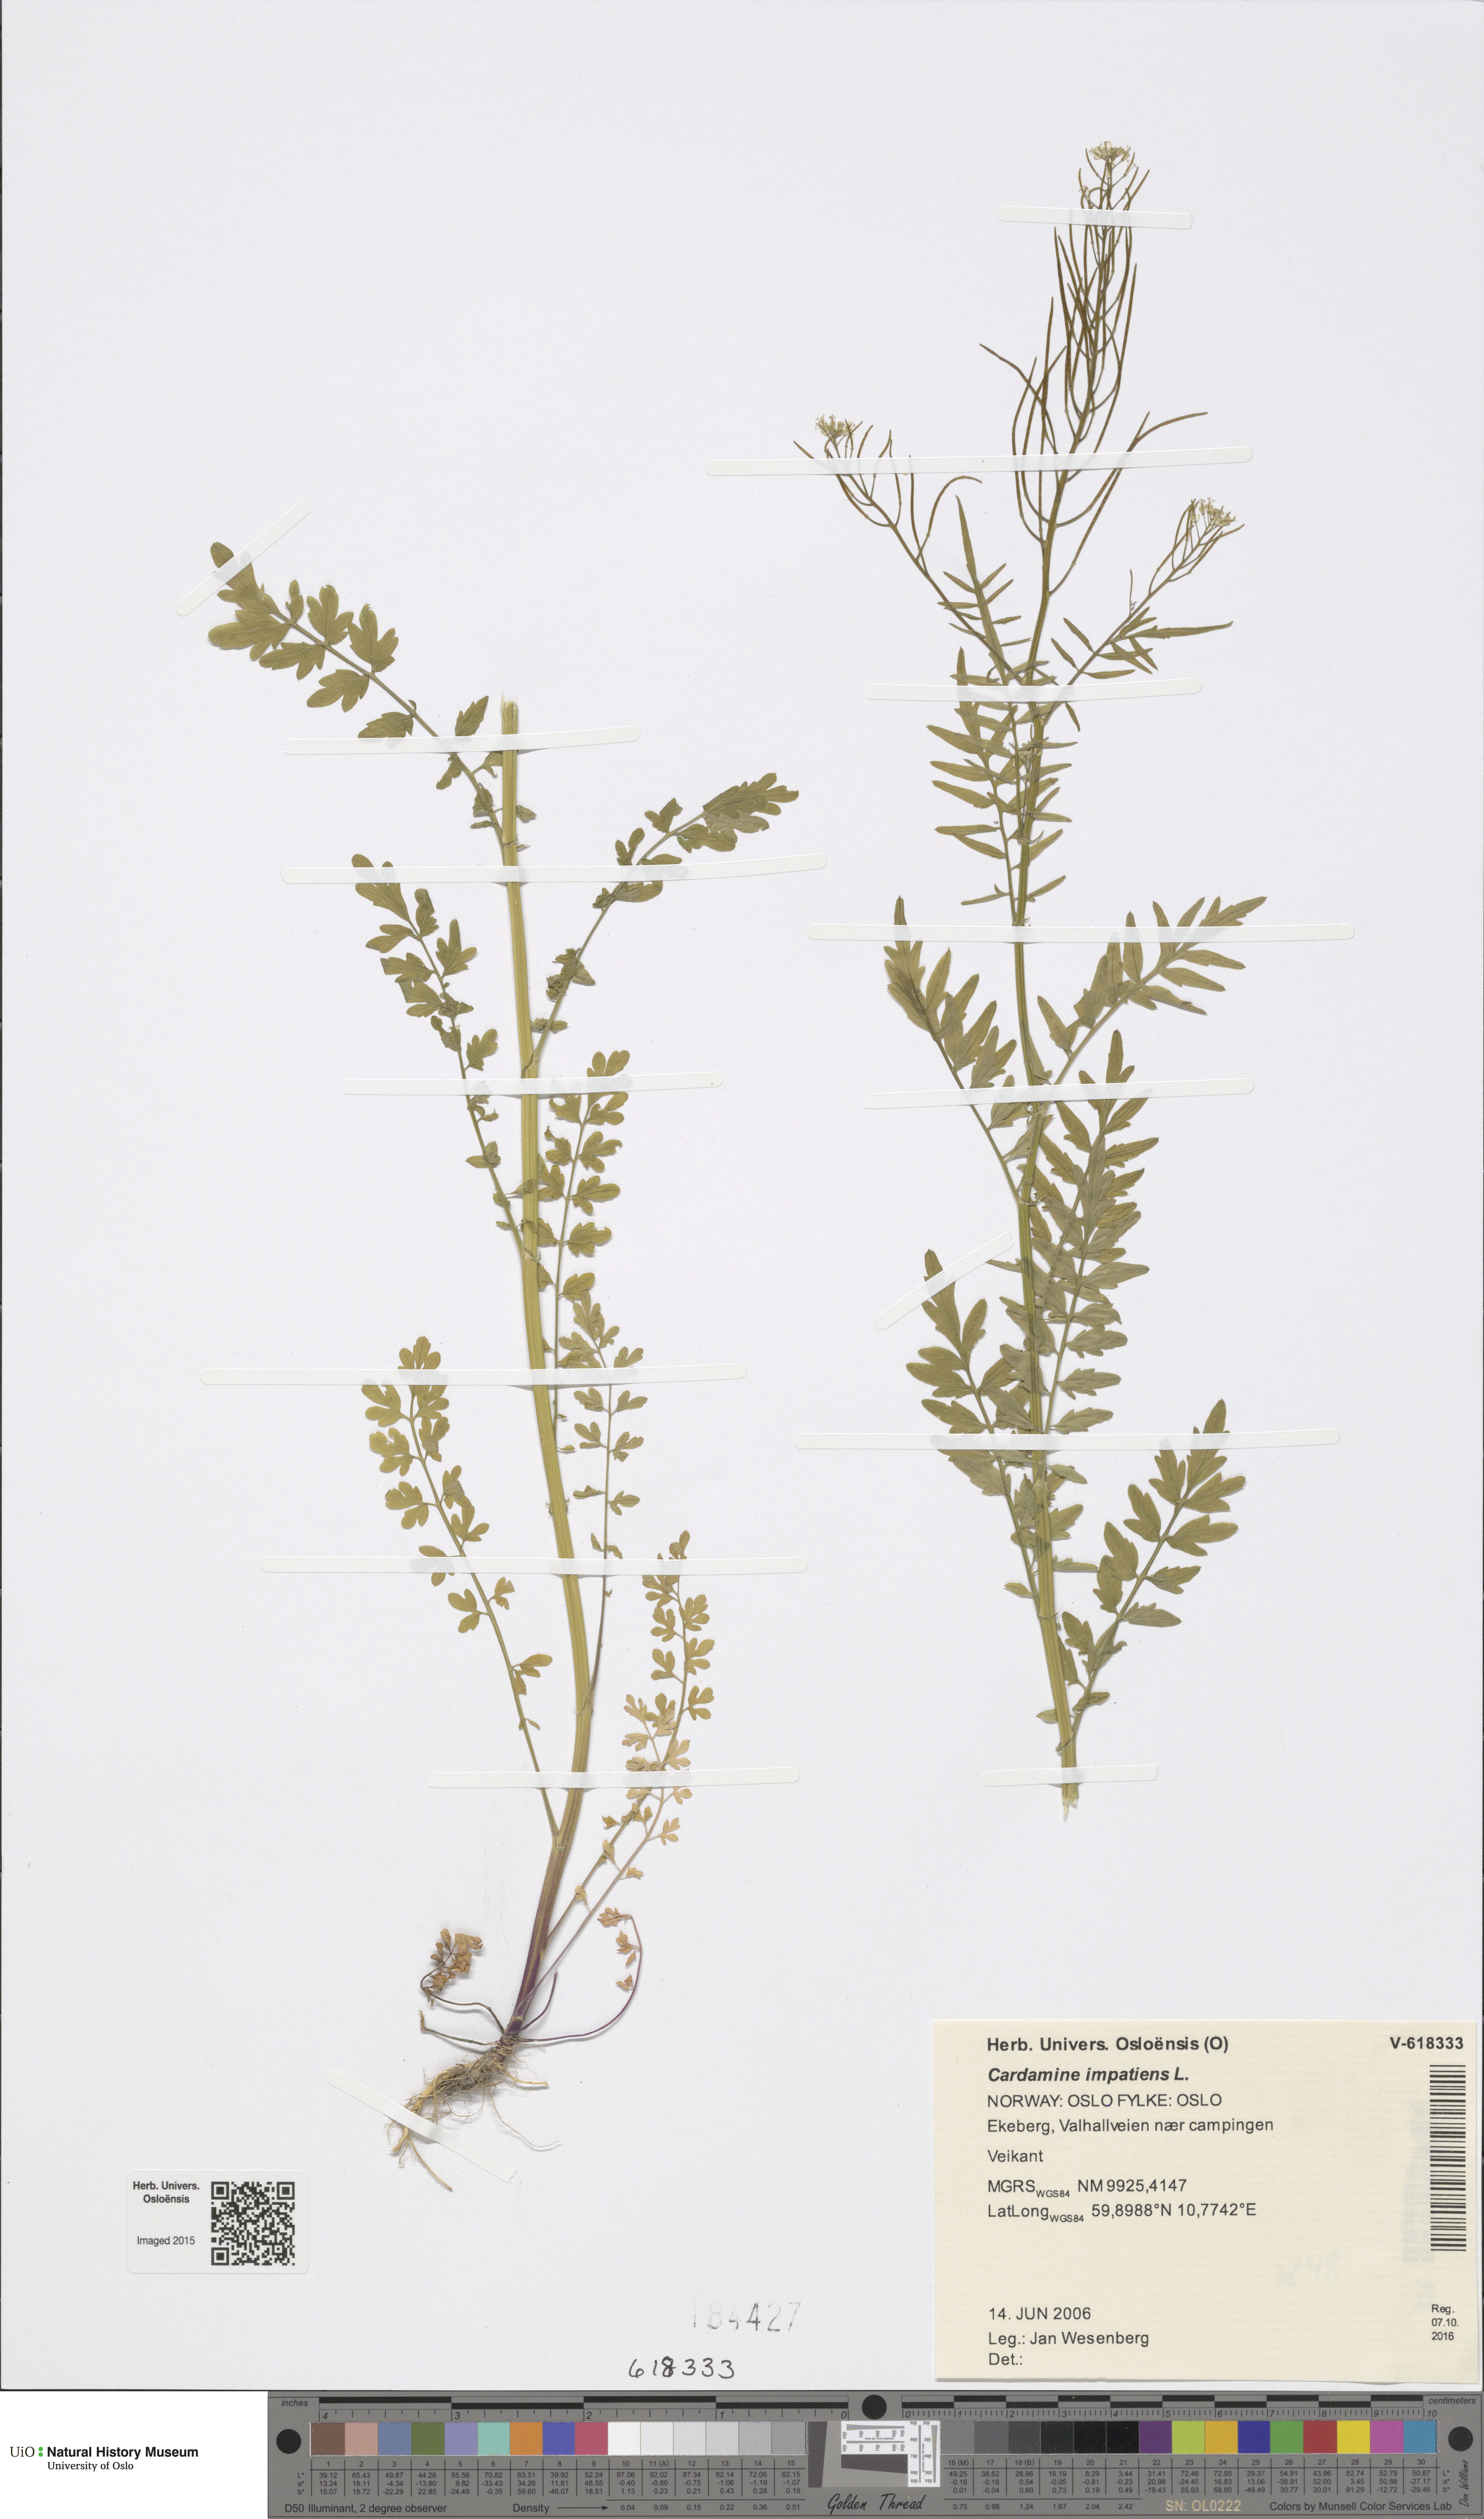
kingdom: Plantae
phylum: Tracheophyta
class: Magnoliopsida
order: Brassicales
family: Brassicaceae
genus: Cardamine
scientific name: Cardamine impatiens
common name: Narrow-leaved bitter-cress
